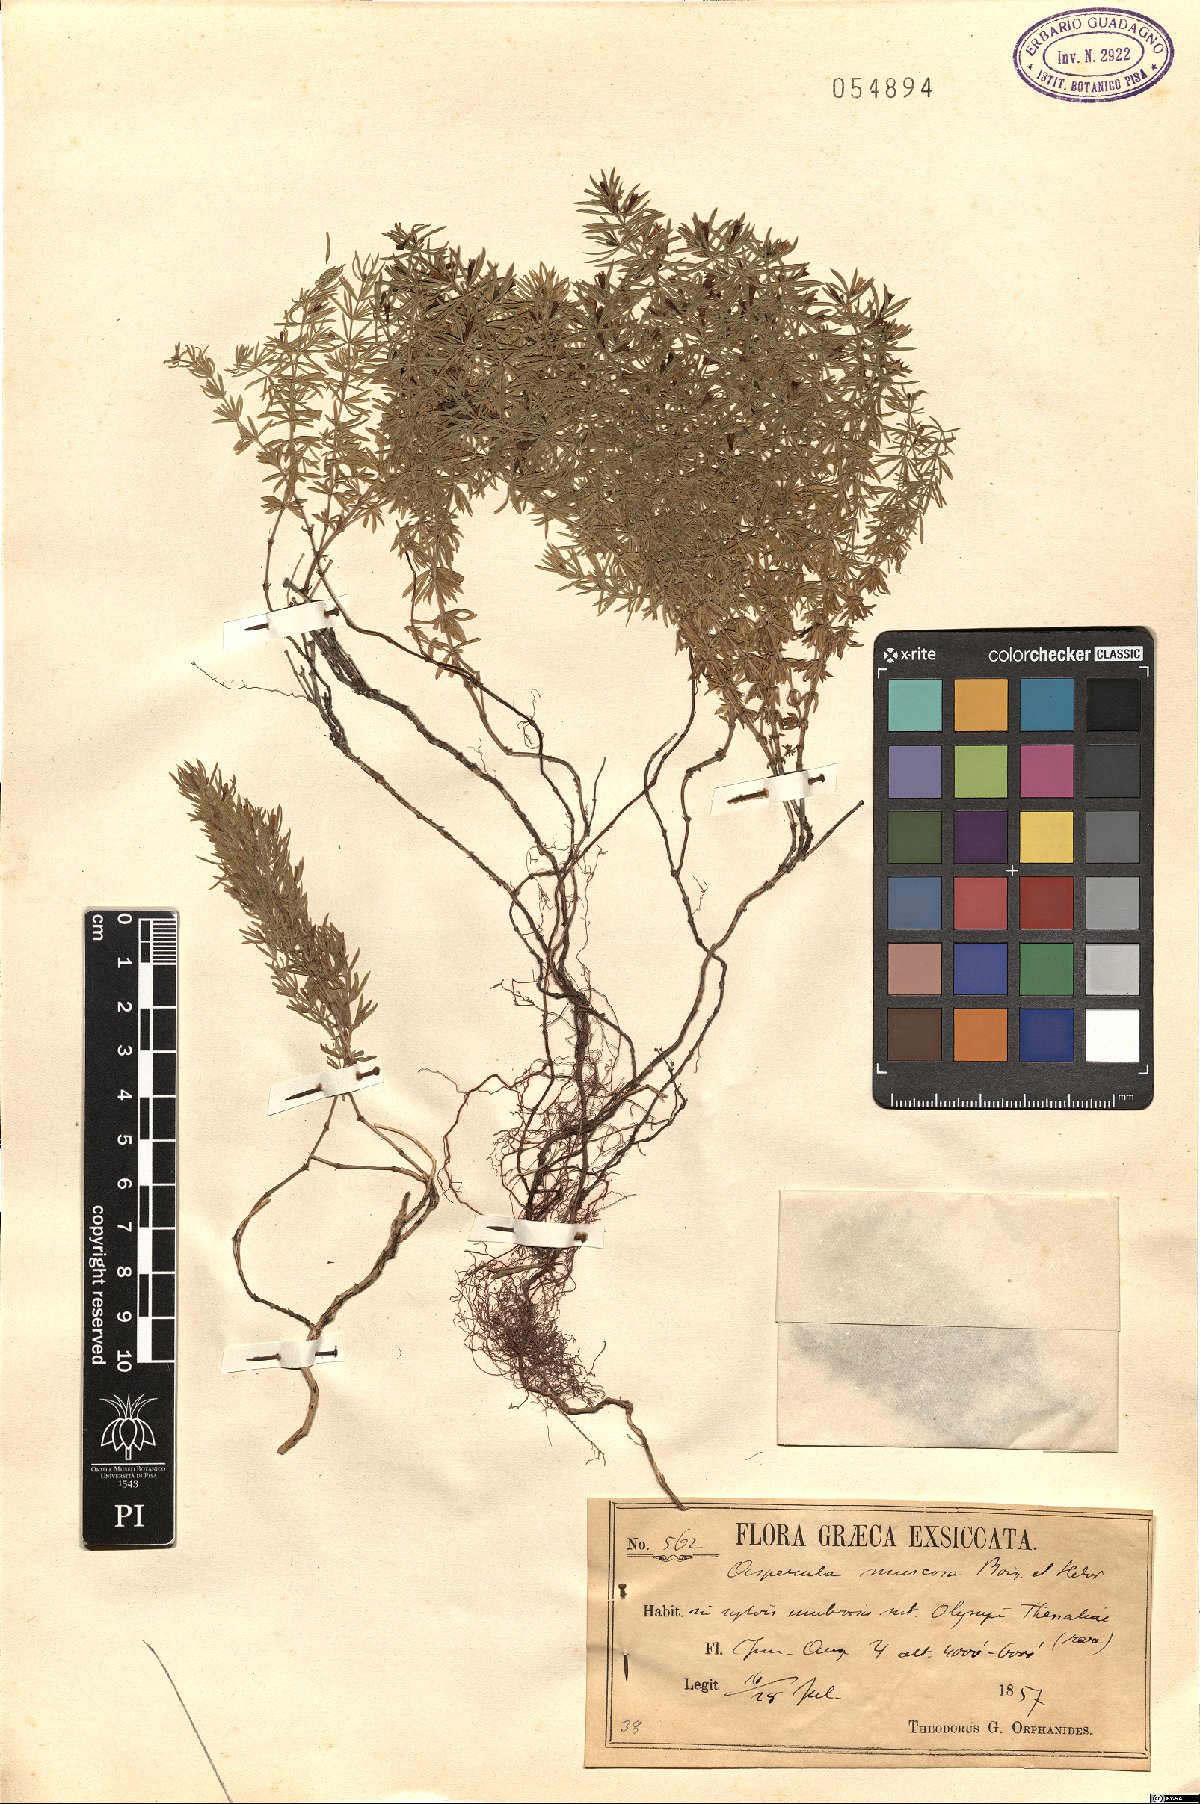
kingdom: Plantae
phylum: Tracheophyta
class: Magnoliopsida
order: Gentianales
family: Rubiaceae
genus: Thliphthisa
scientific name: Thliphthisa muscosa
